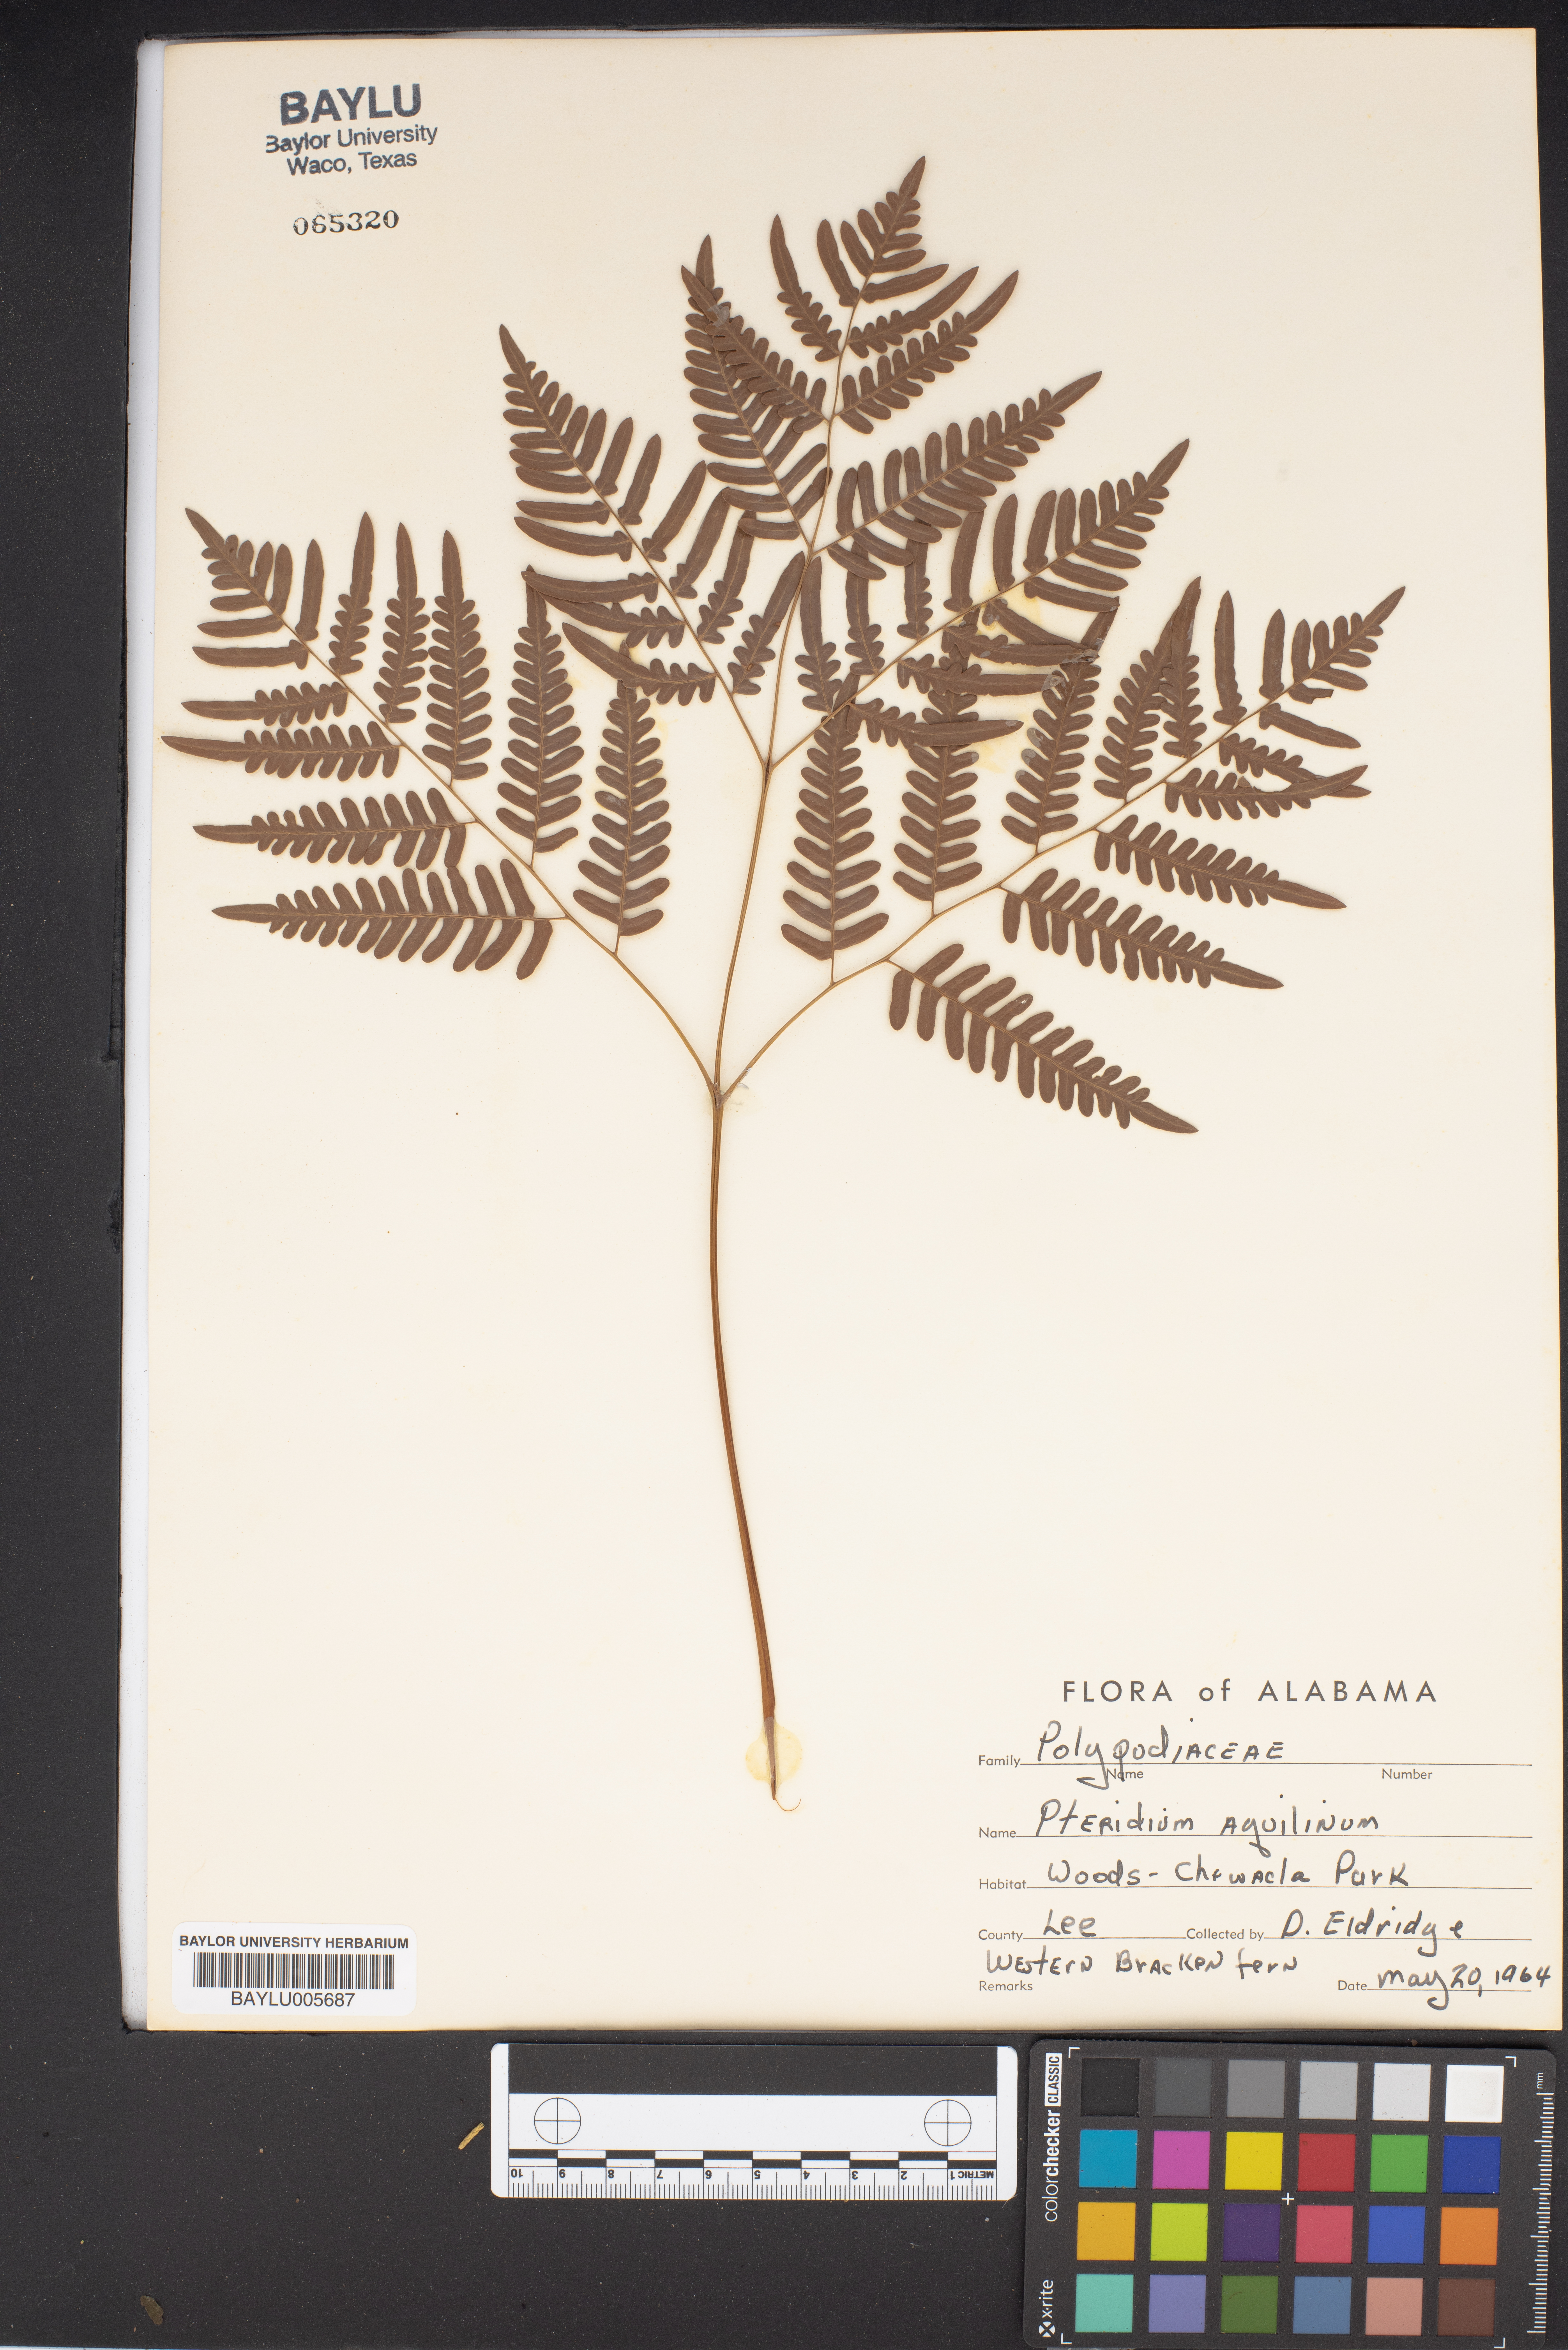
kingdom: Plantae
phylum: Tracheophyta
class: Polypodiopsida
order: Polypodiales
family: Dennstaedtiaceae
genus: Pteridium
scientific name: Pteridium aquilinum
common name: Bracken
